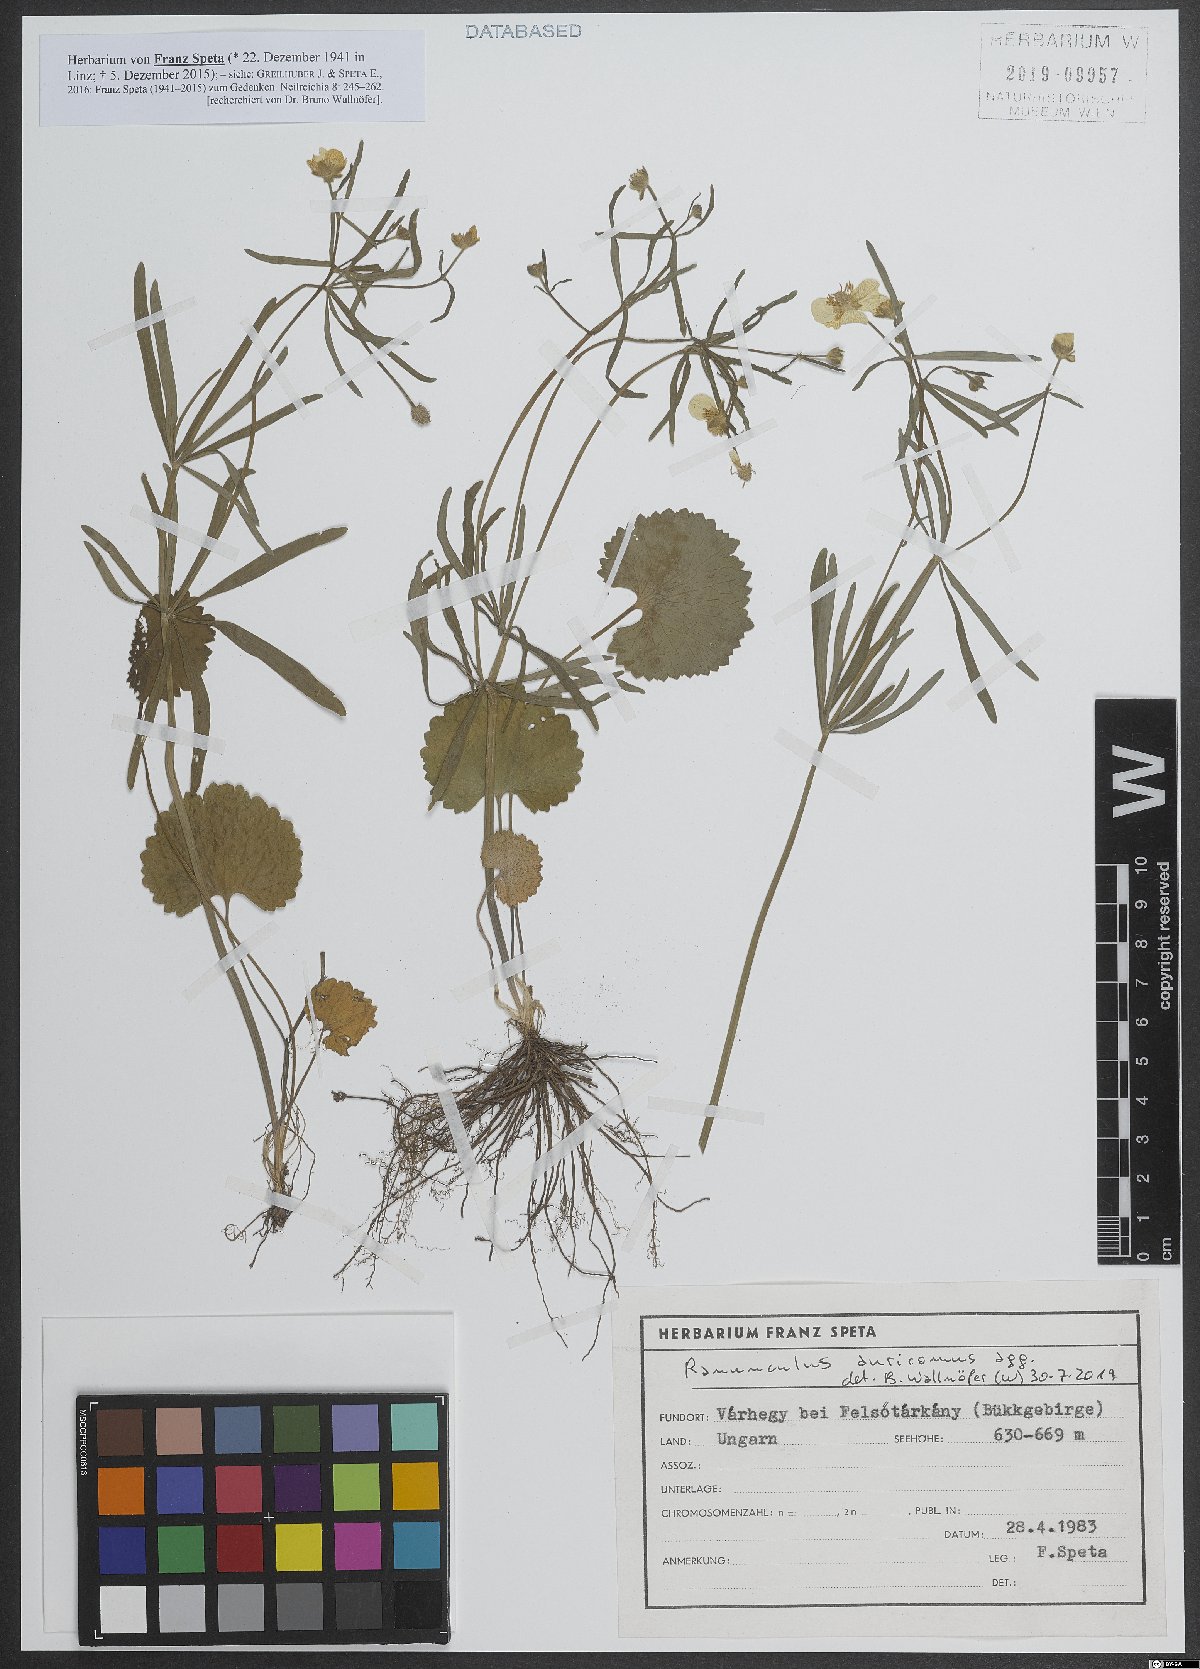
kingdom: Plantae
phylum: Tracheophyta
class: Magnoliopsida
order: Ranunculales
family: Ranunculaceae
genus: Ranunculus
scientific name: Ranunculus auricomus
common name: Goldilocks buttercup
